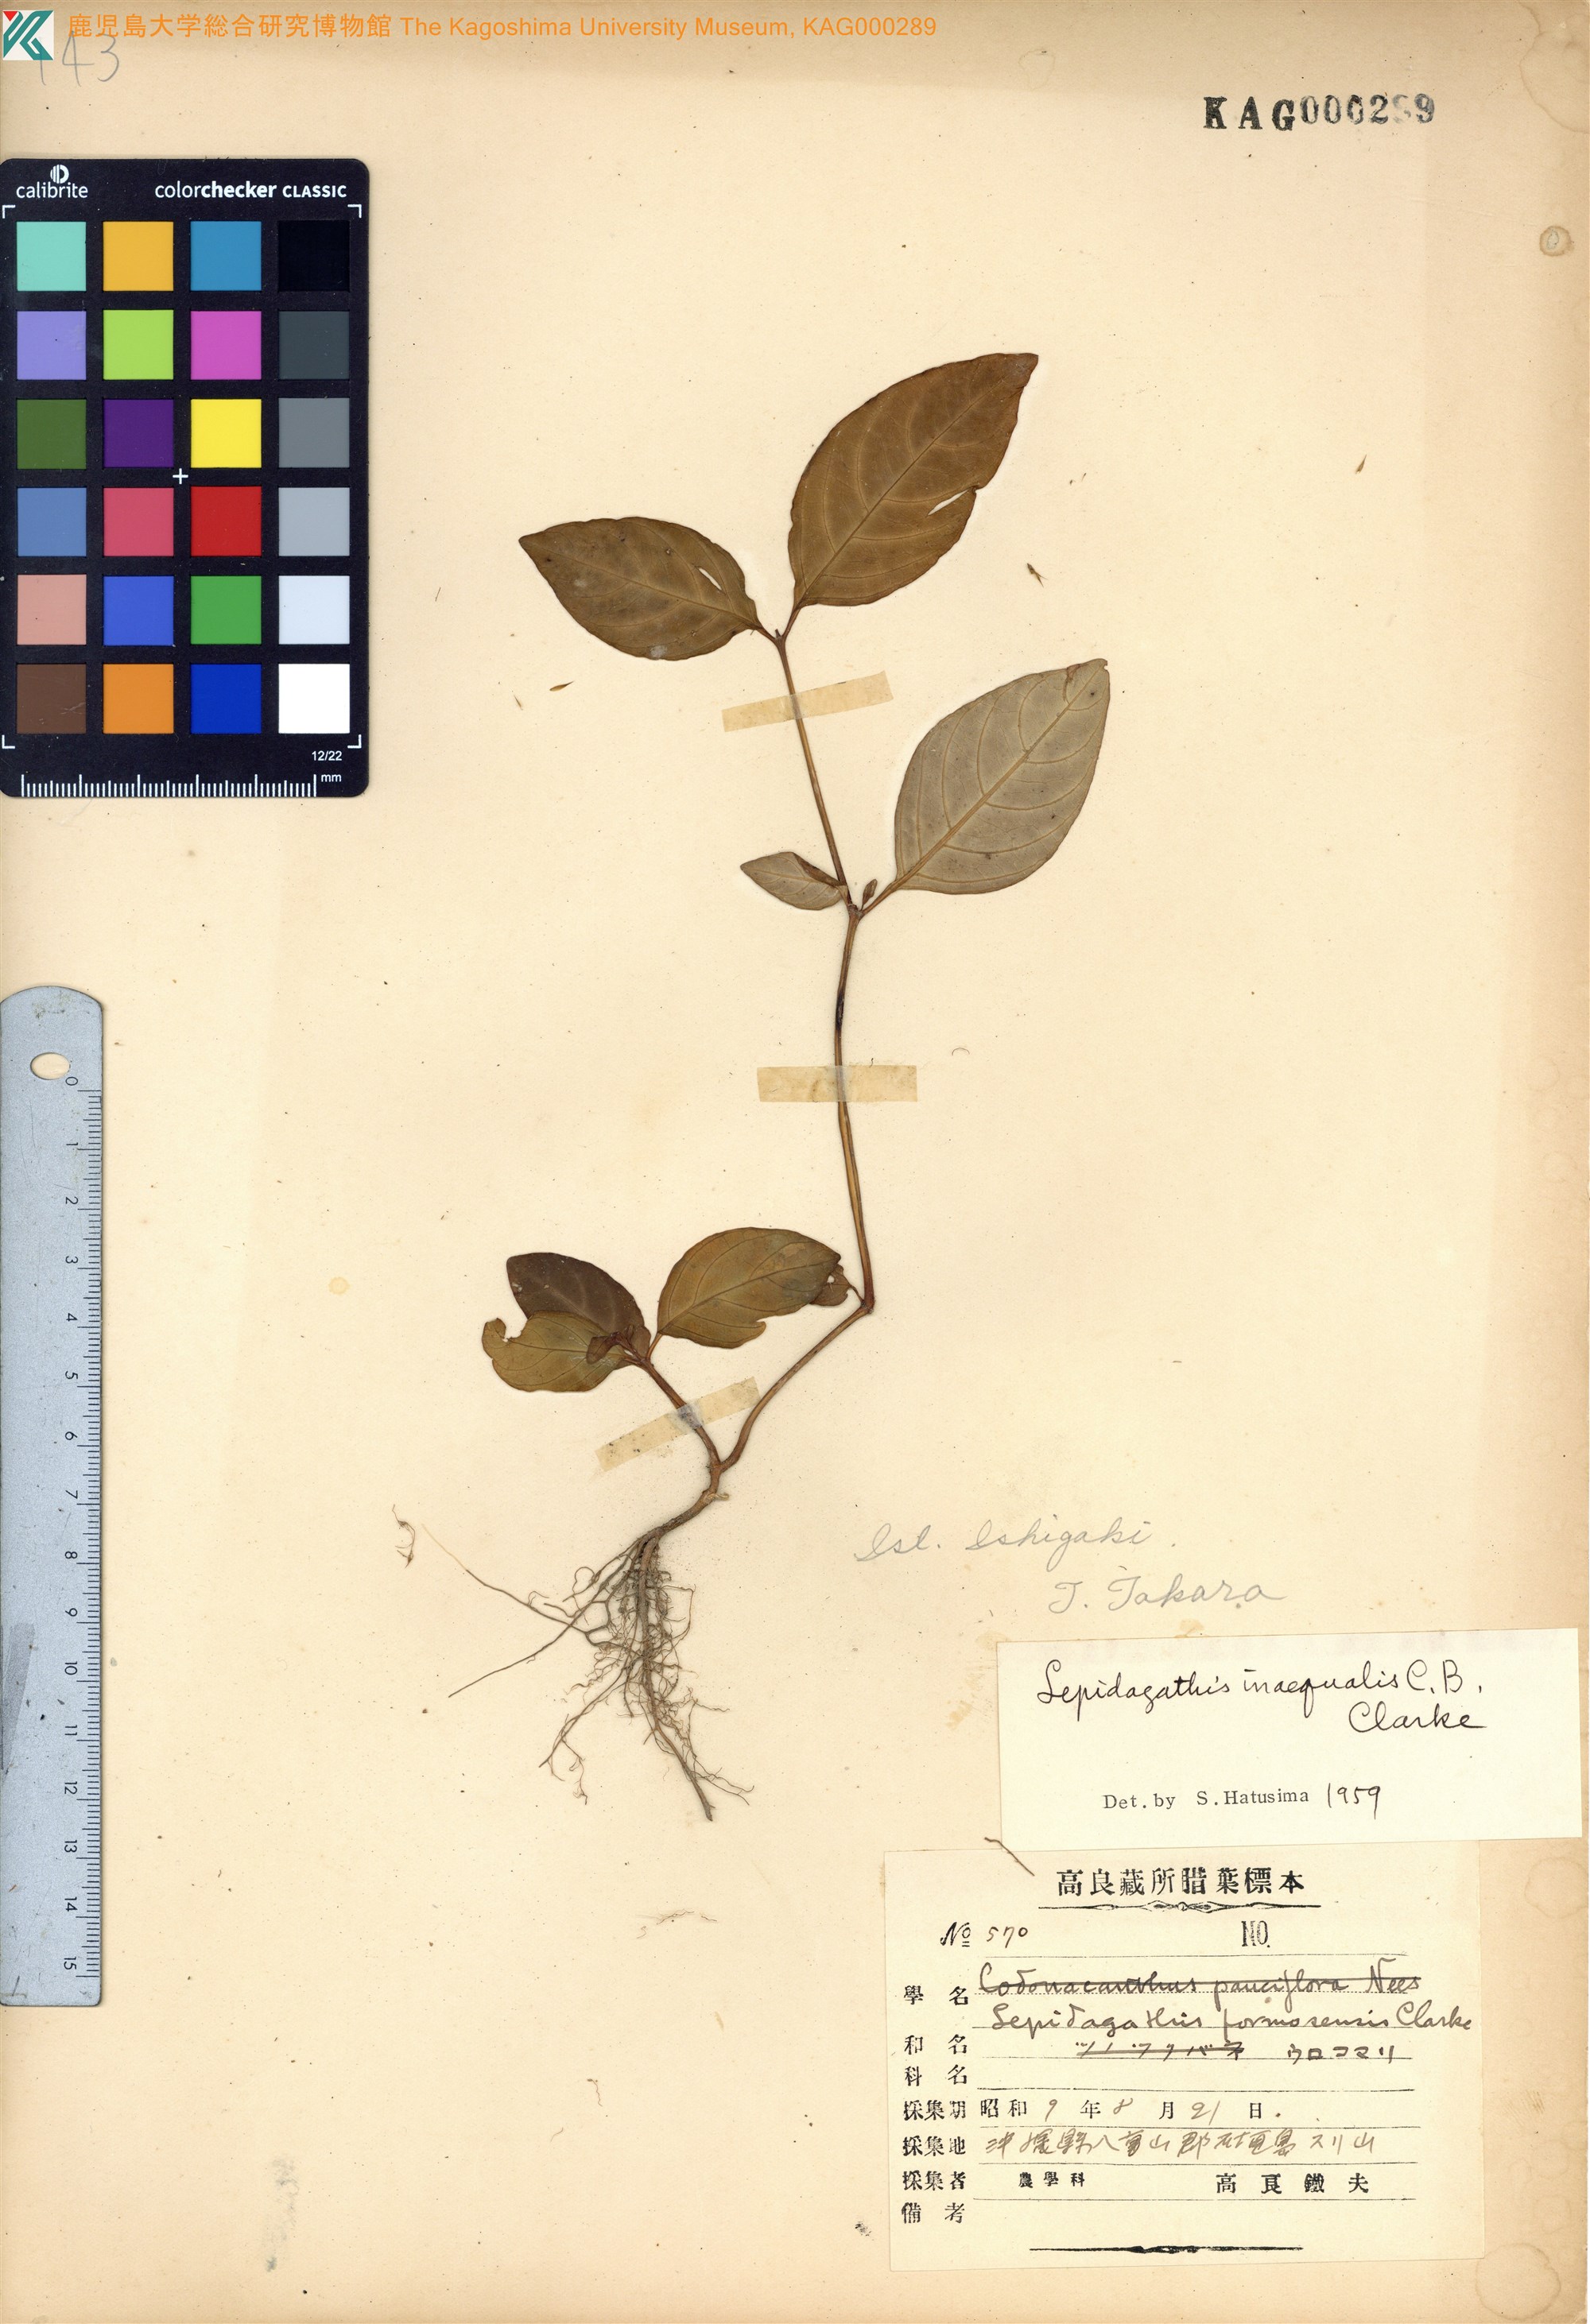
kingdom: Plantae
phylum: Tracheophyta
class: Magnoliopsida
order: Lamiales
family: Acanthaceae
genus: Lepidagathis
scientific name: Lepidagathis inaequalis
